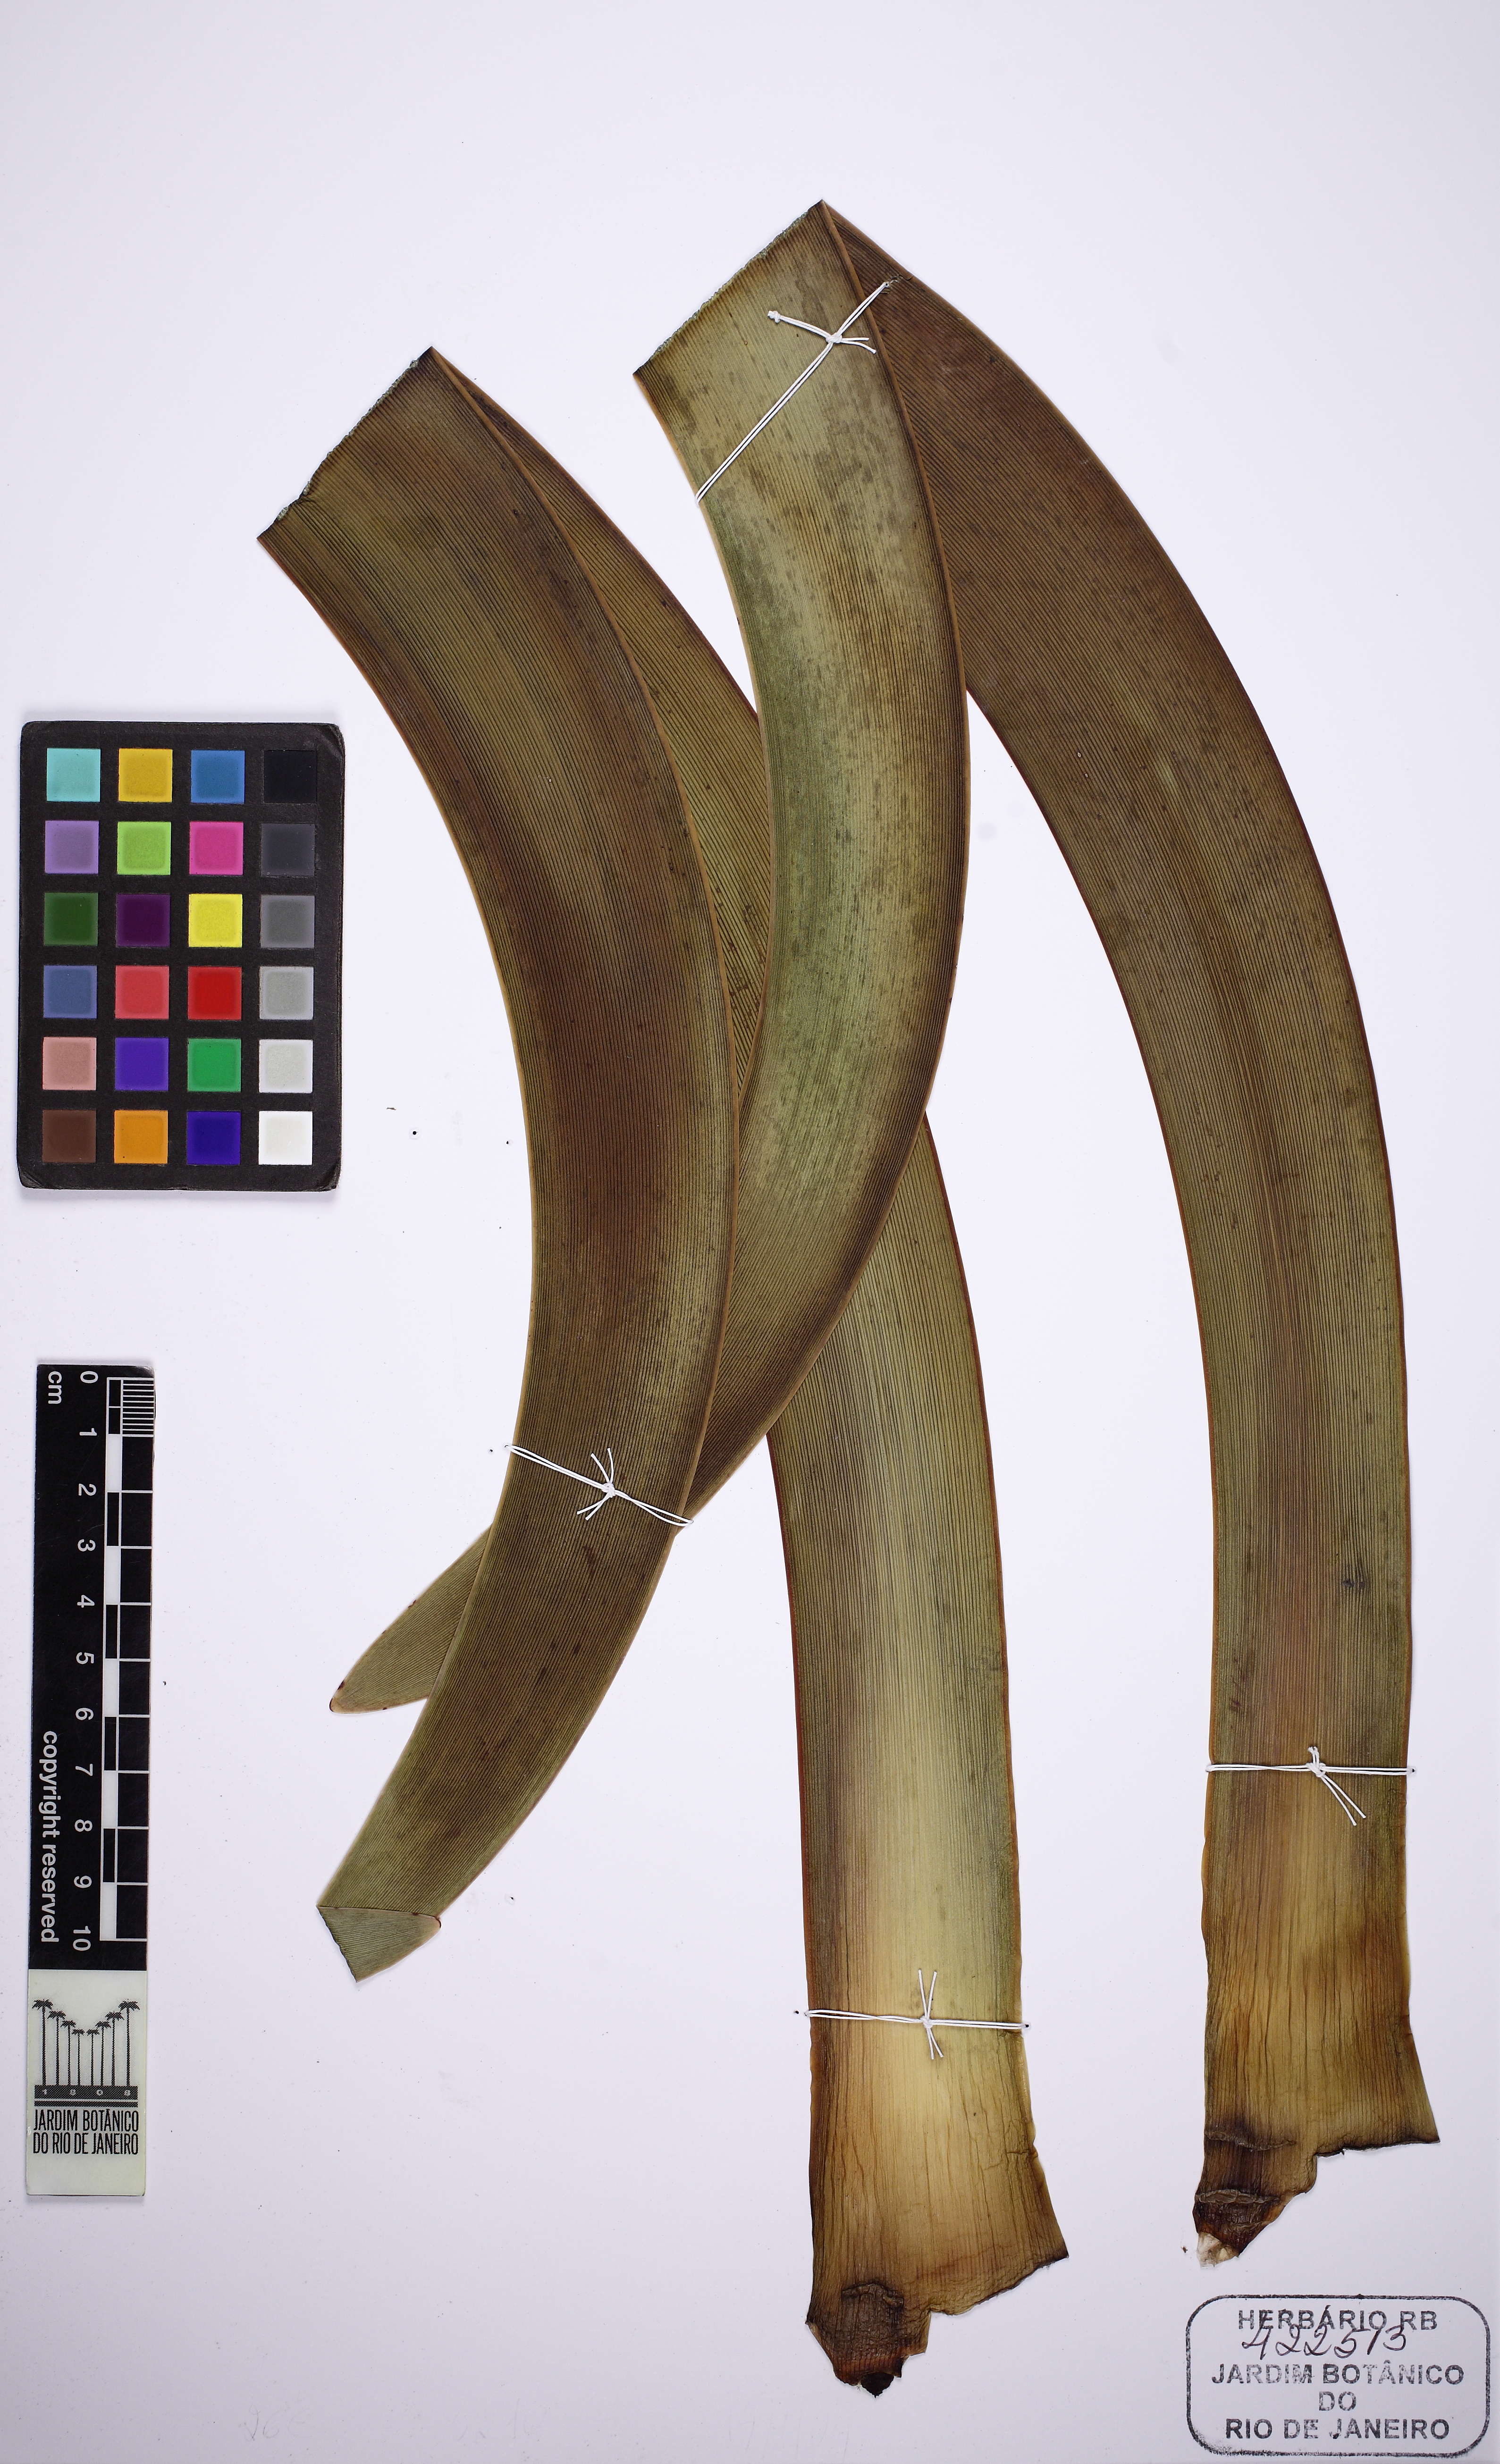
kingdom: Plantae
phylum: Tracheophyta
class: Liliopsida
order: Asparagales
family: Amaryllidaceae
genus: Worsleya
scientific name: Worsleya procera
